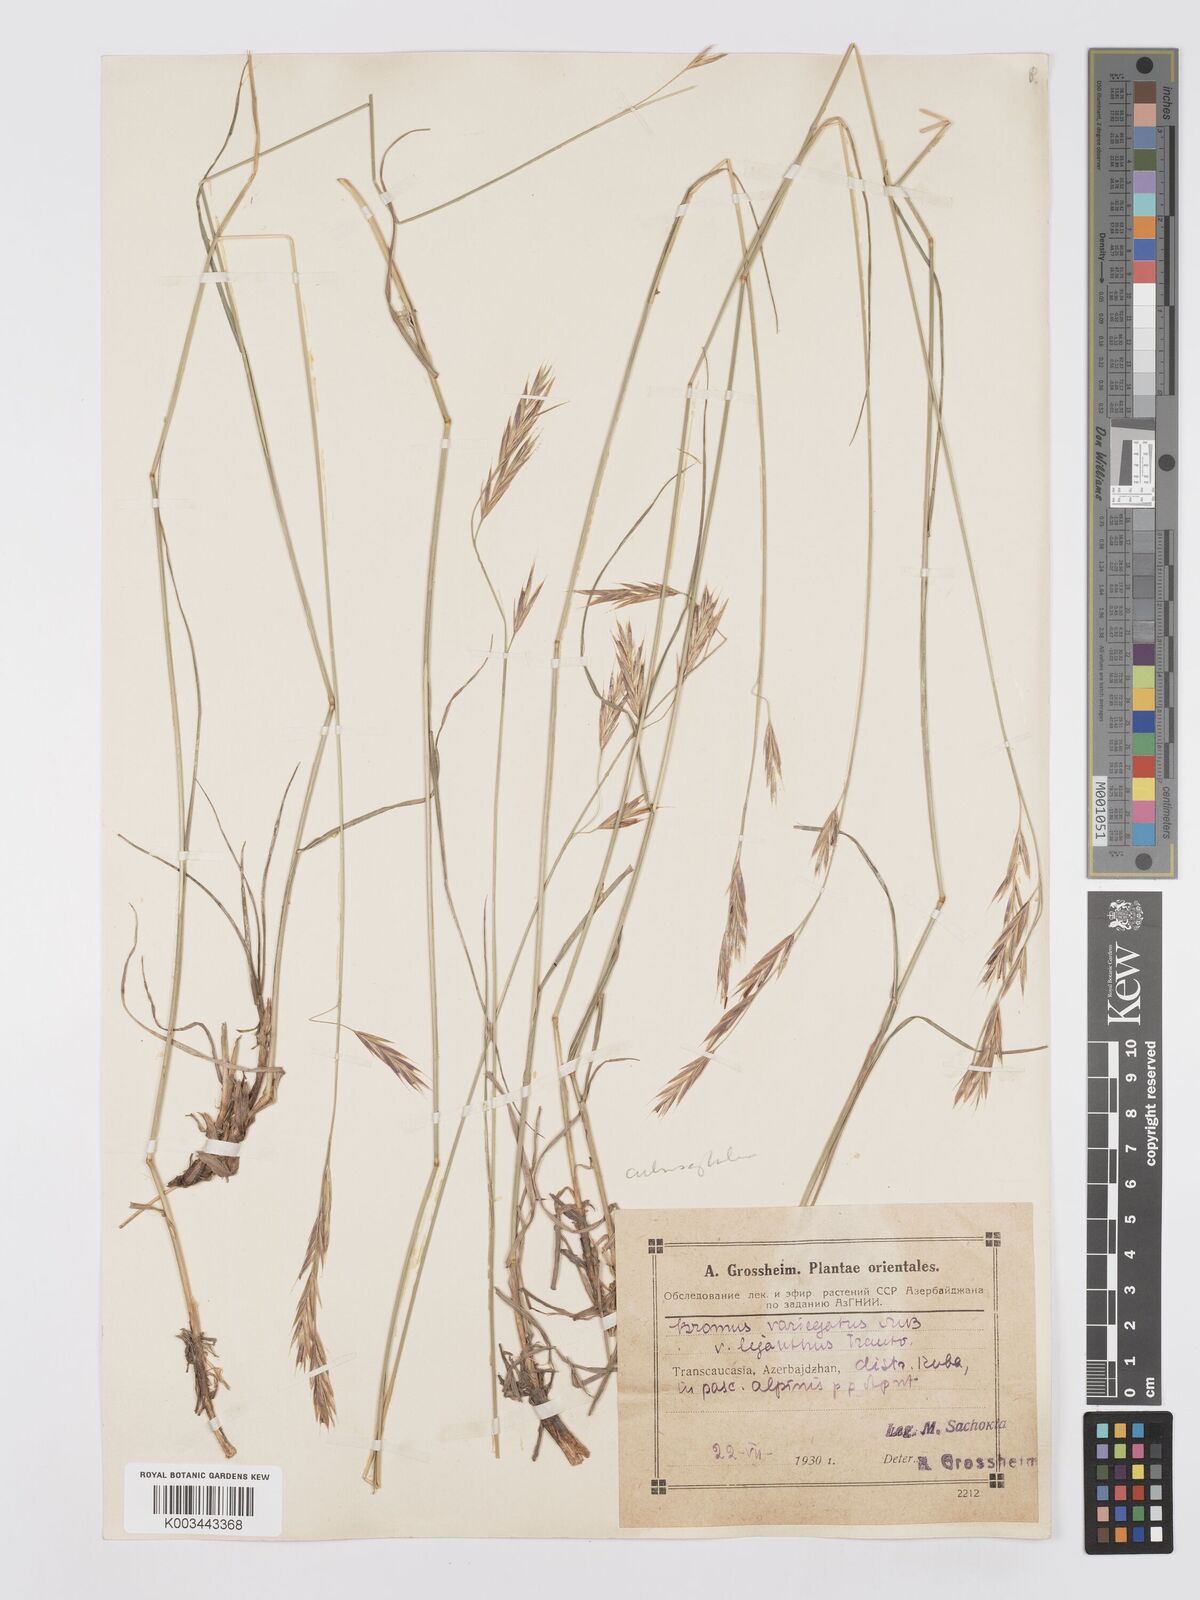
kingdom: Plantae
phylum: Tracheophyta
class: Liliopsida
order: Poales
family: Poaceae
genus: Bromus
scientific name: Bromus variegatus
